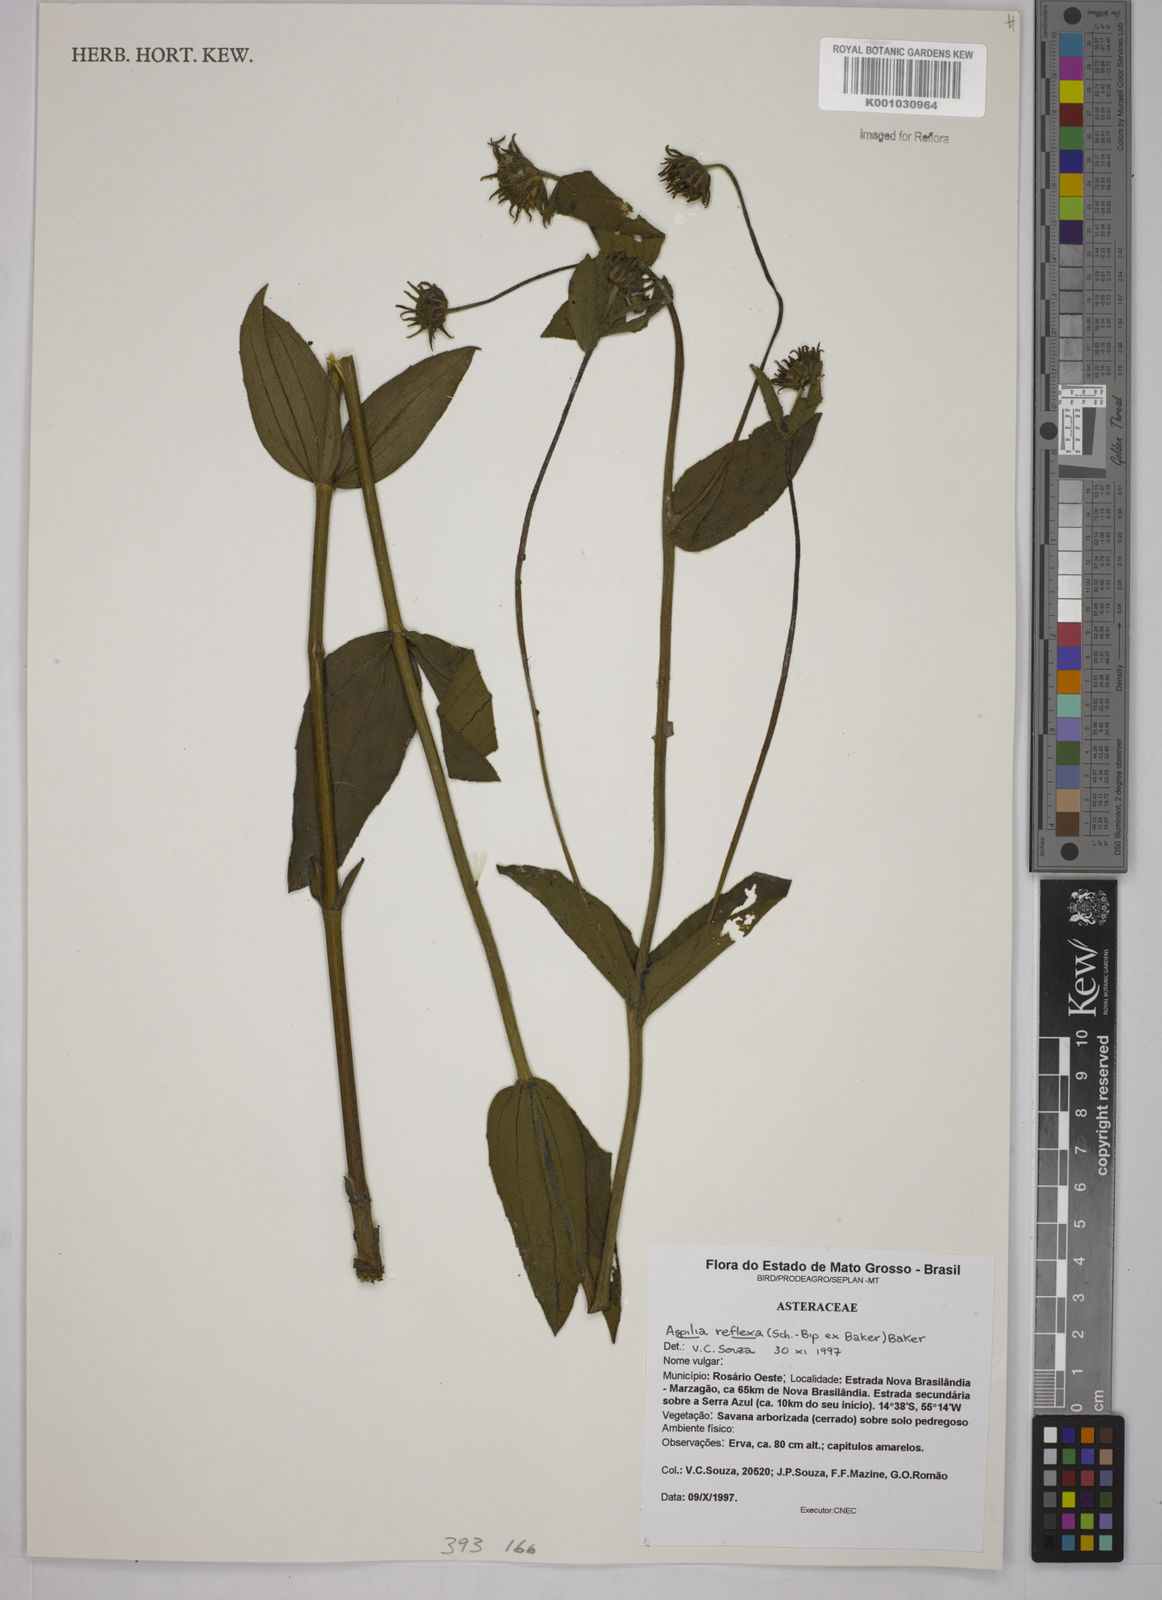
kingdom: Plantae
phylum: Tracheophyta
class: Magnoliopsida
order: Asterales
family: Asteraceae
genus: Wedelia
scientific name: Wedelia reflexa
